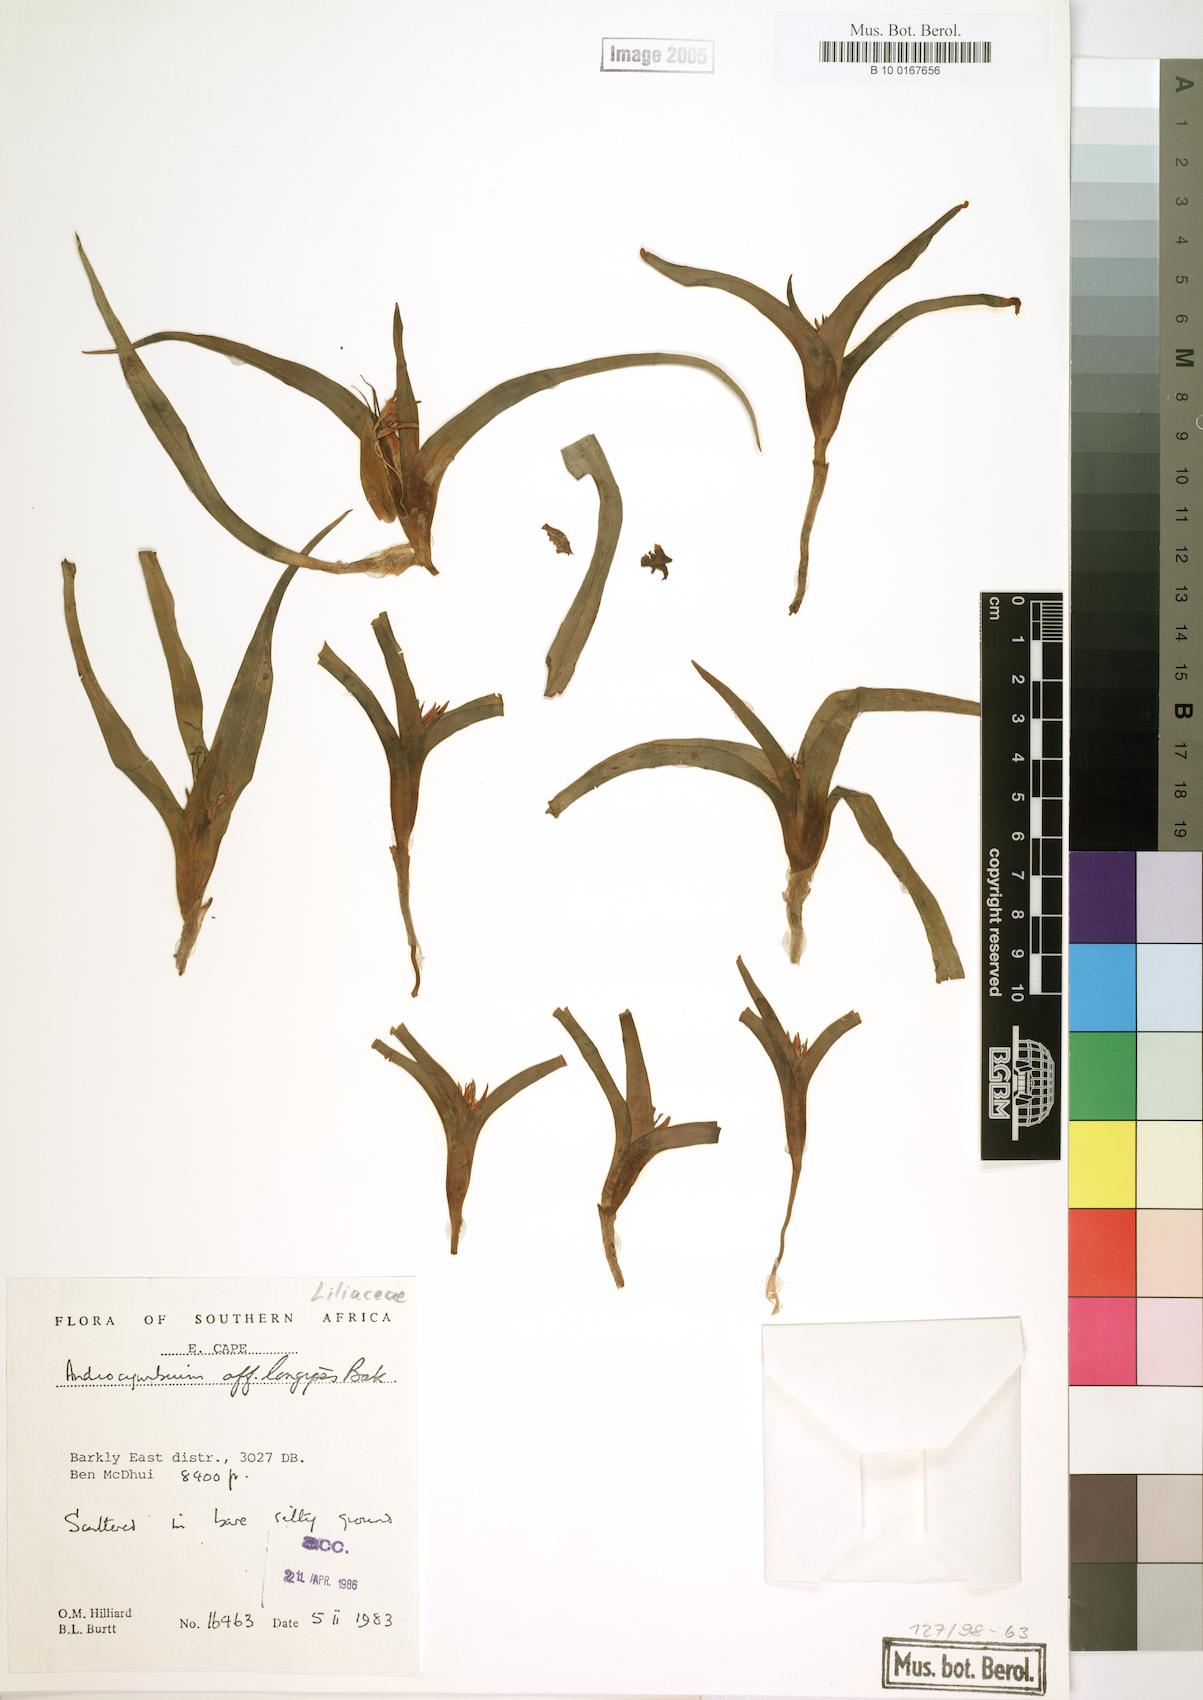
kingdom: Plantae
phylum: Tracheophyta
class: Liliopsida
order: Liliales
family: Colchicaceae
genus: Colchicum
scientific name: Colchicum longipes
